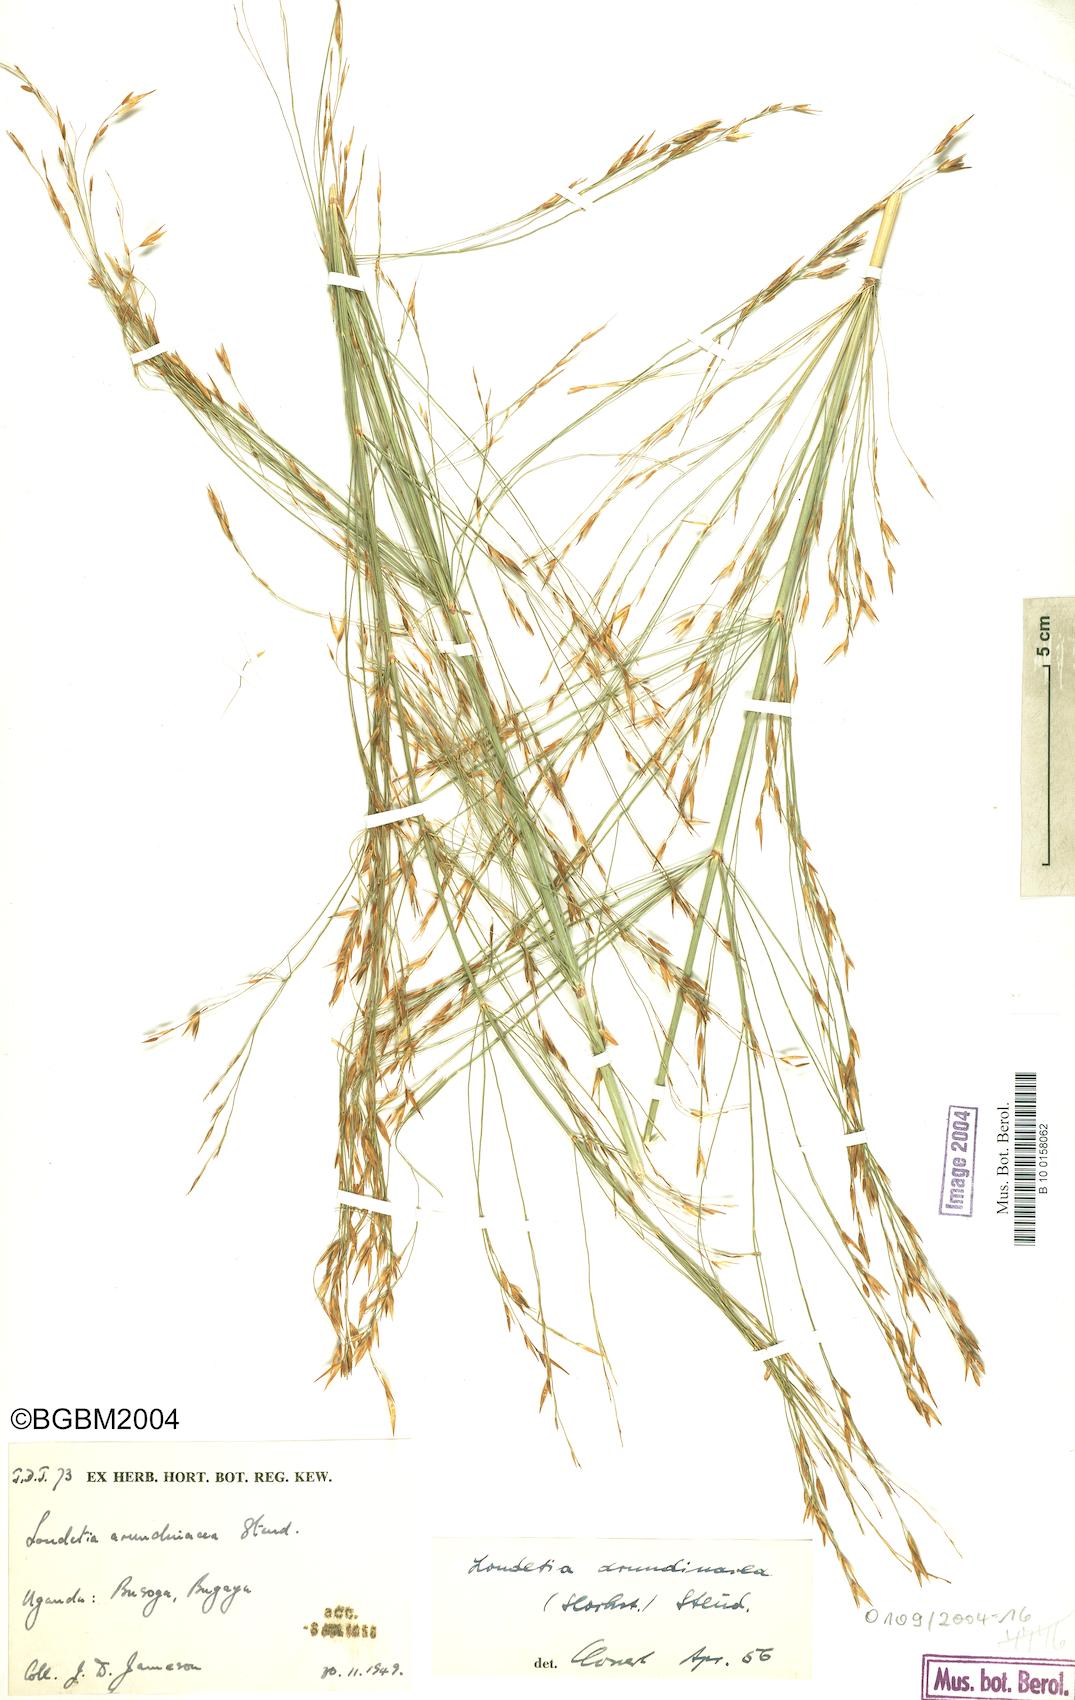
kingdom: Plantae
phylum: Tracheophyta
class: Liliopsida
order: Poales
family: Poaceae
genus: Loudetia
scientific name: Loudetia arundinacea
